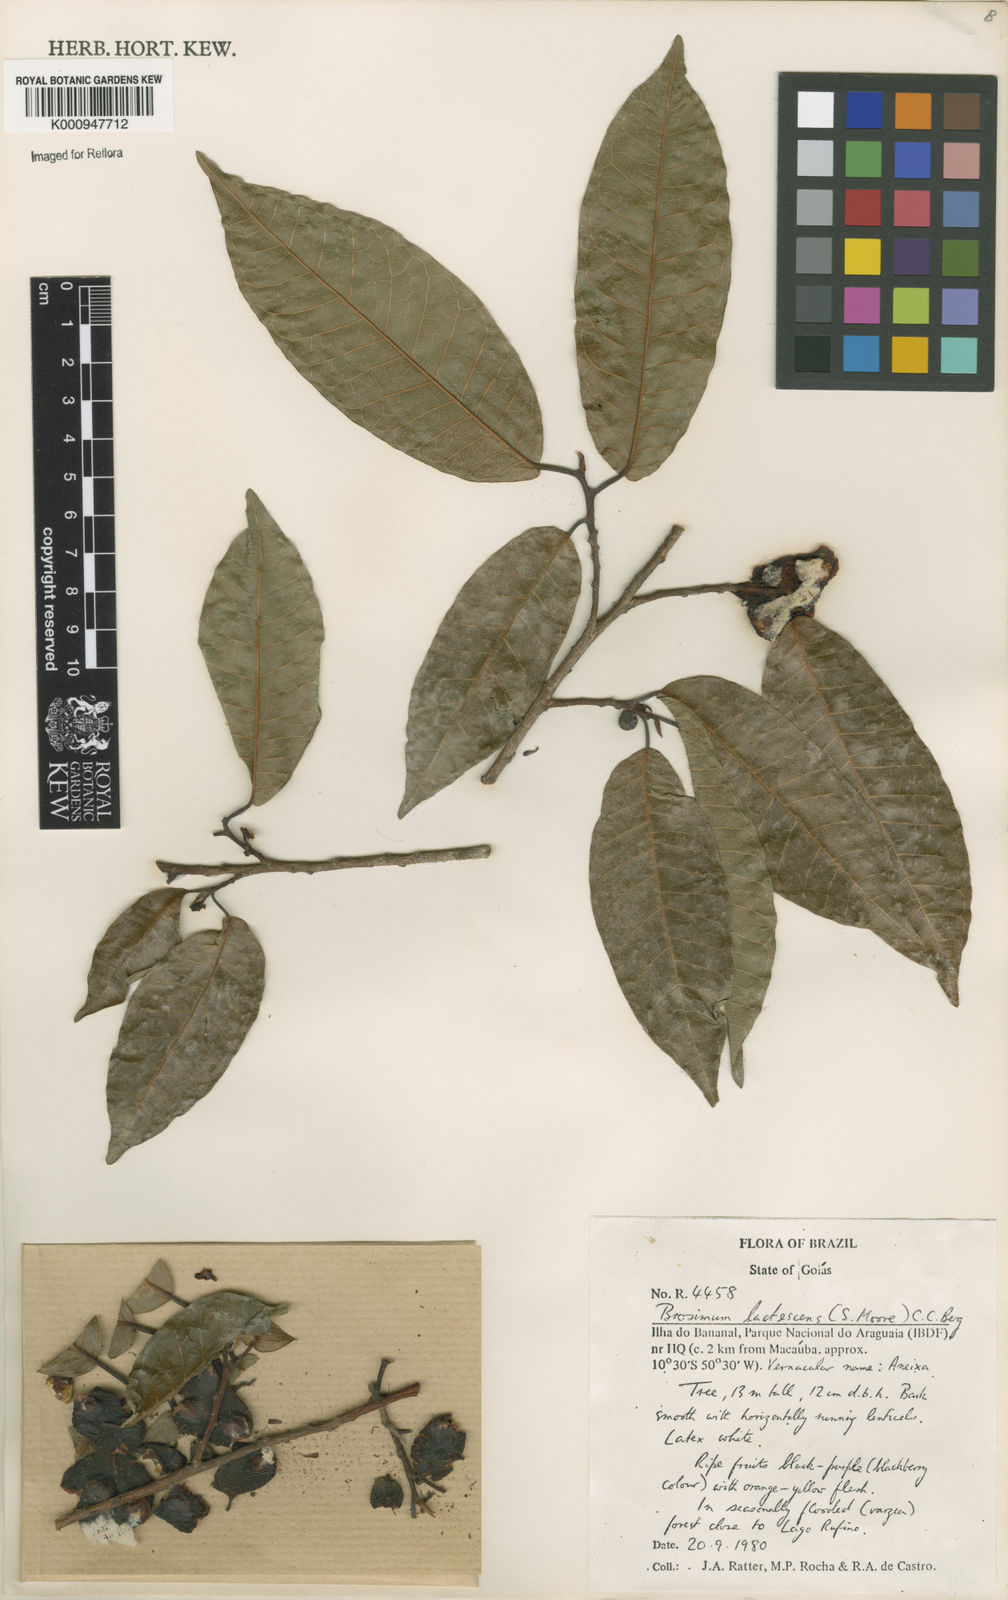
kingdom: Plantae
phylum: Tracheophyta
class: Magnoliopsida
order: Rosales
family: Moraceae
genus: Brosimum
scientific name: Brosimum lactescens
